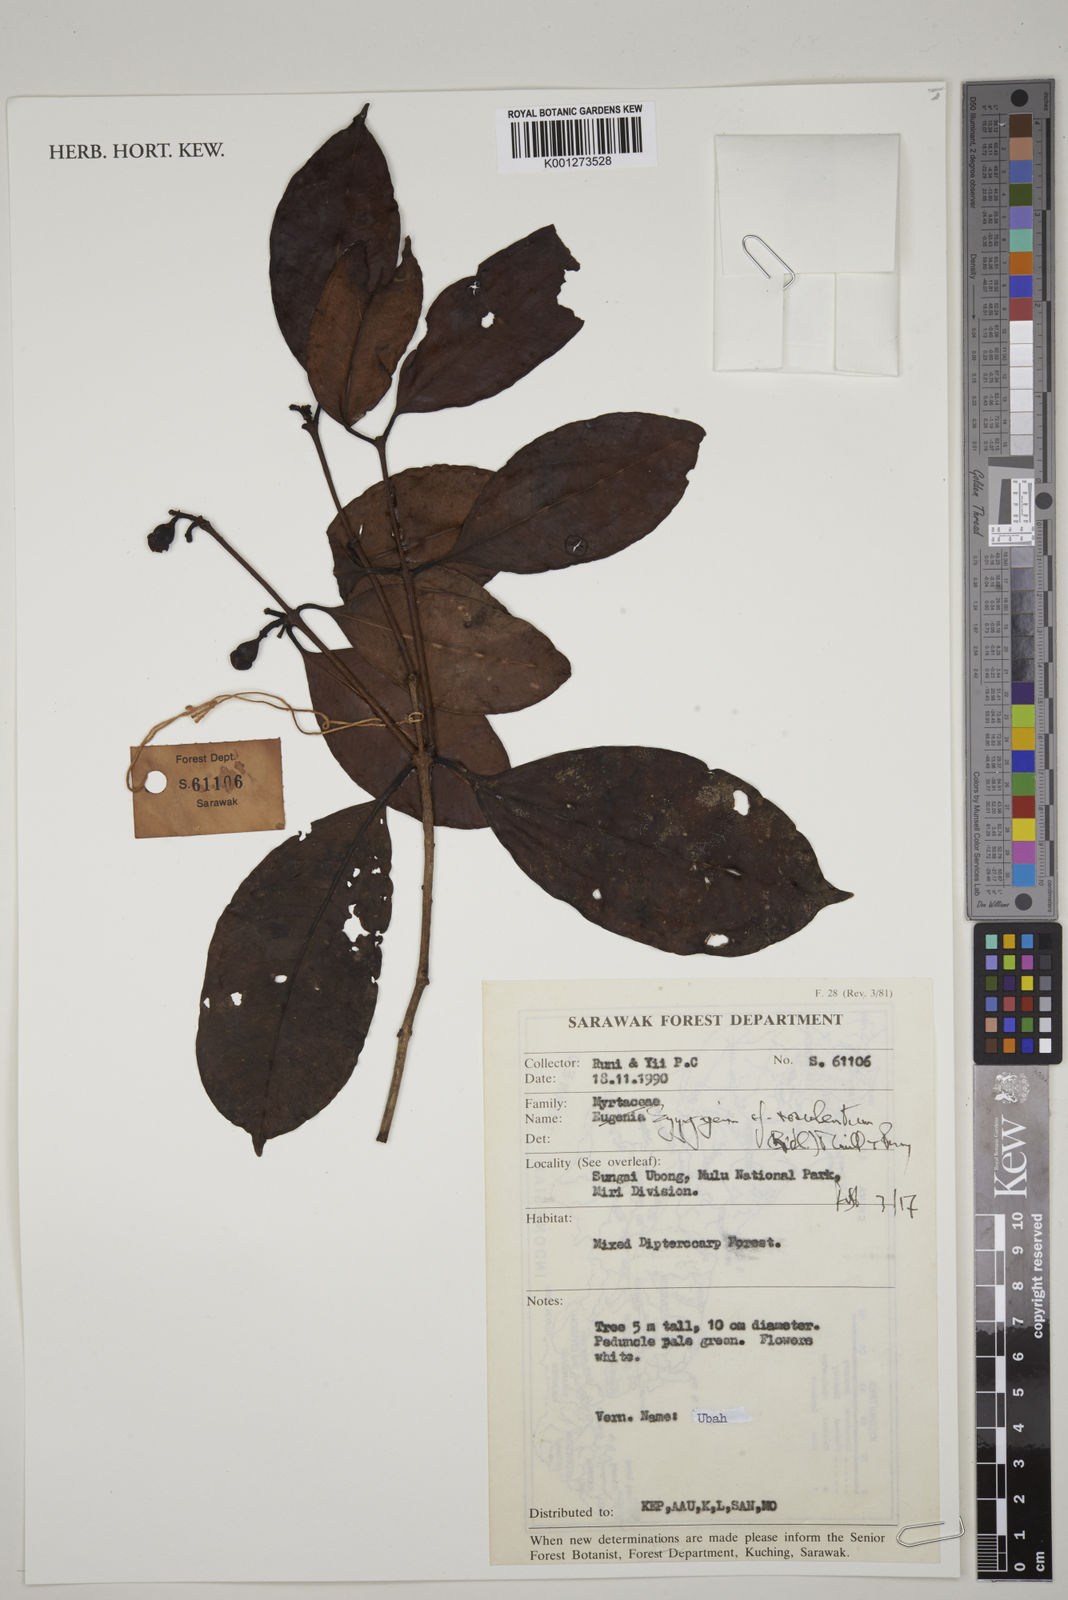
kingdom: Plantae
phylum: Tracheophyta
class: Magnoliopsida
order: Myrtales
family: Myrtaceae
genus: Syzygium
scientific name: Syzygium rosulentum
